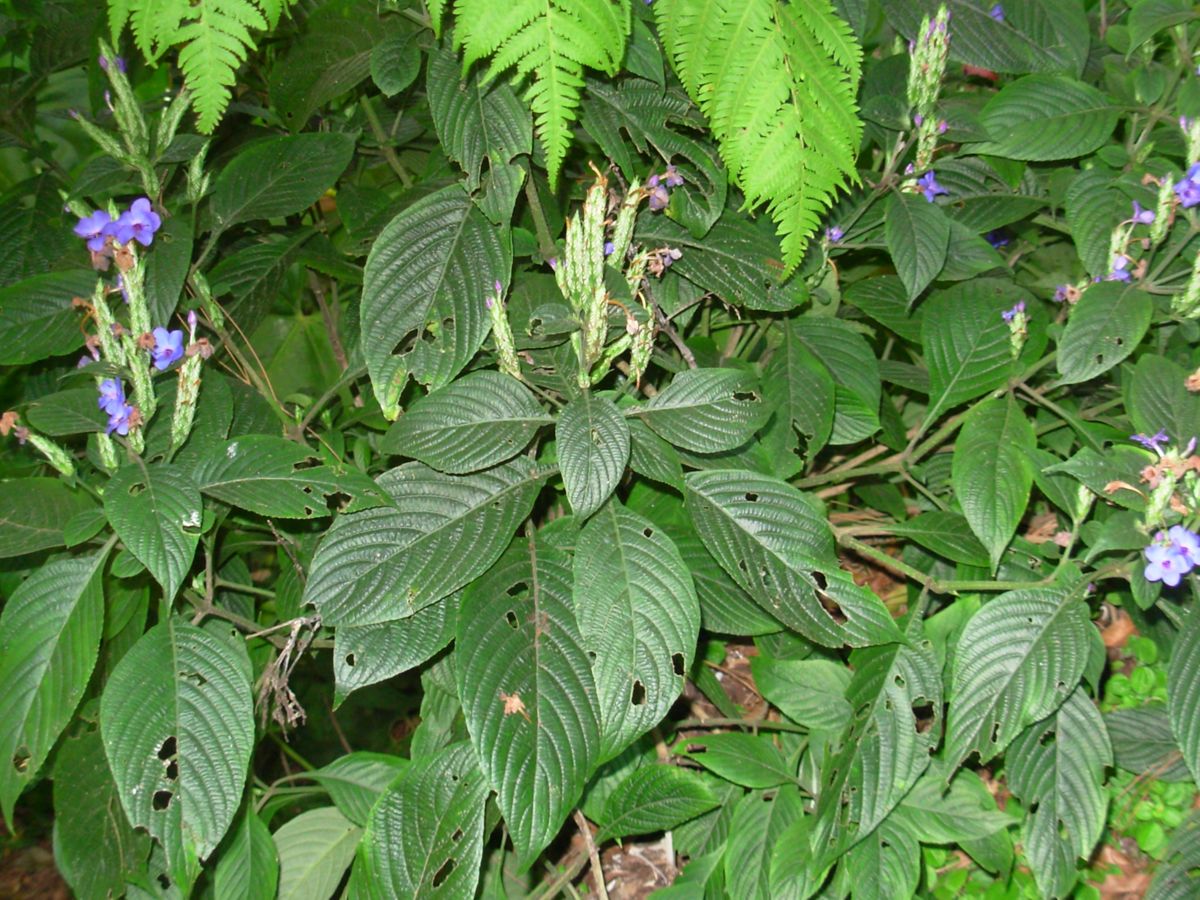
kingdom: Plantae
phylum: Tracheophyta
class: Magnoliopsida
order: Lamiales
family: Acanthaceae
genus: Eranthemum
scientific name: Eranthemum pulchellum
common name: Blue-sage
